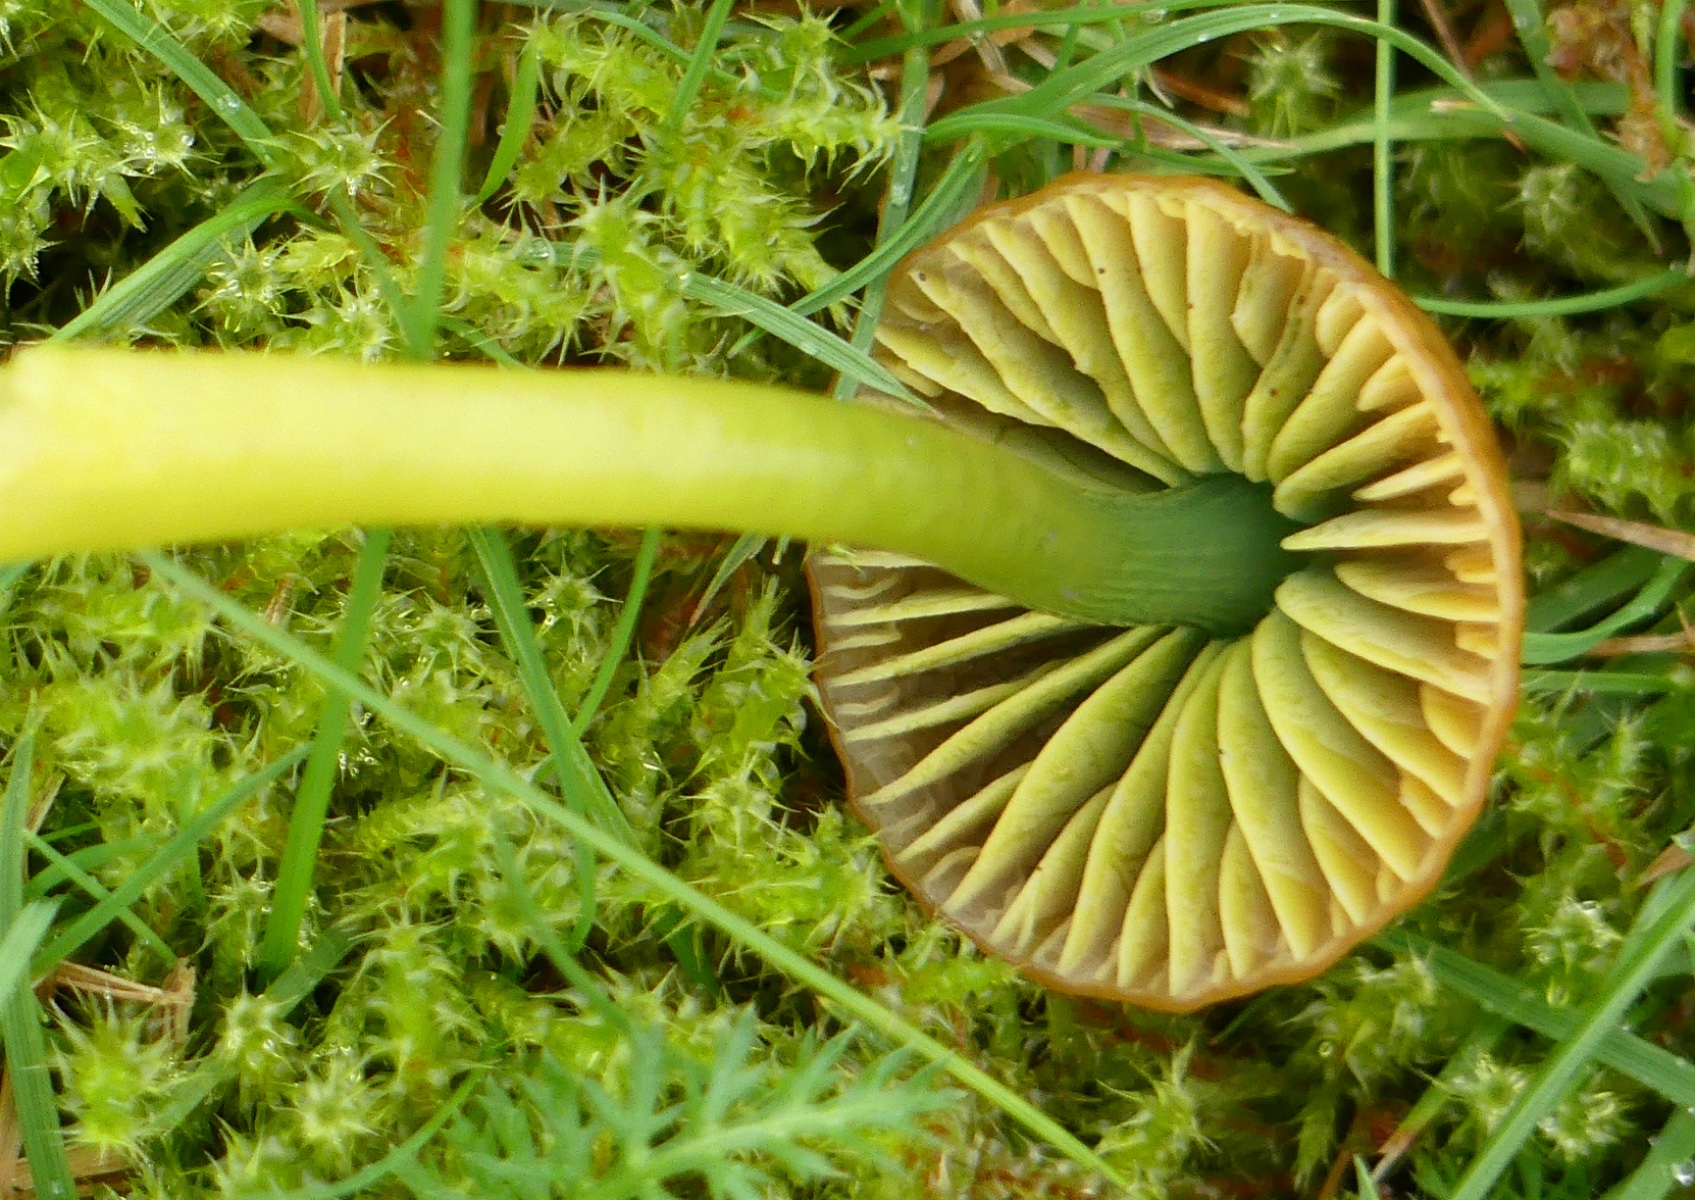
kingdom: Fungi
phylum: Basidiomycota
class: Agaricomycetes
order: Agaricales
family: Hygrophoraceae
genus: Gliophorus
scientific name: Gliophorus psittacinus
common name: papegøje-vokshat
